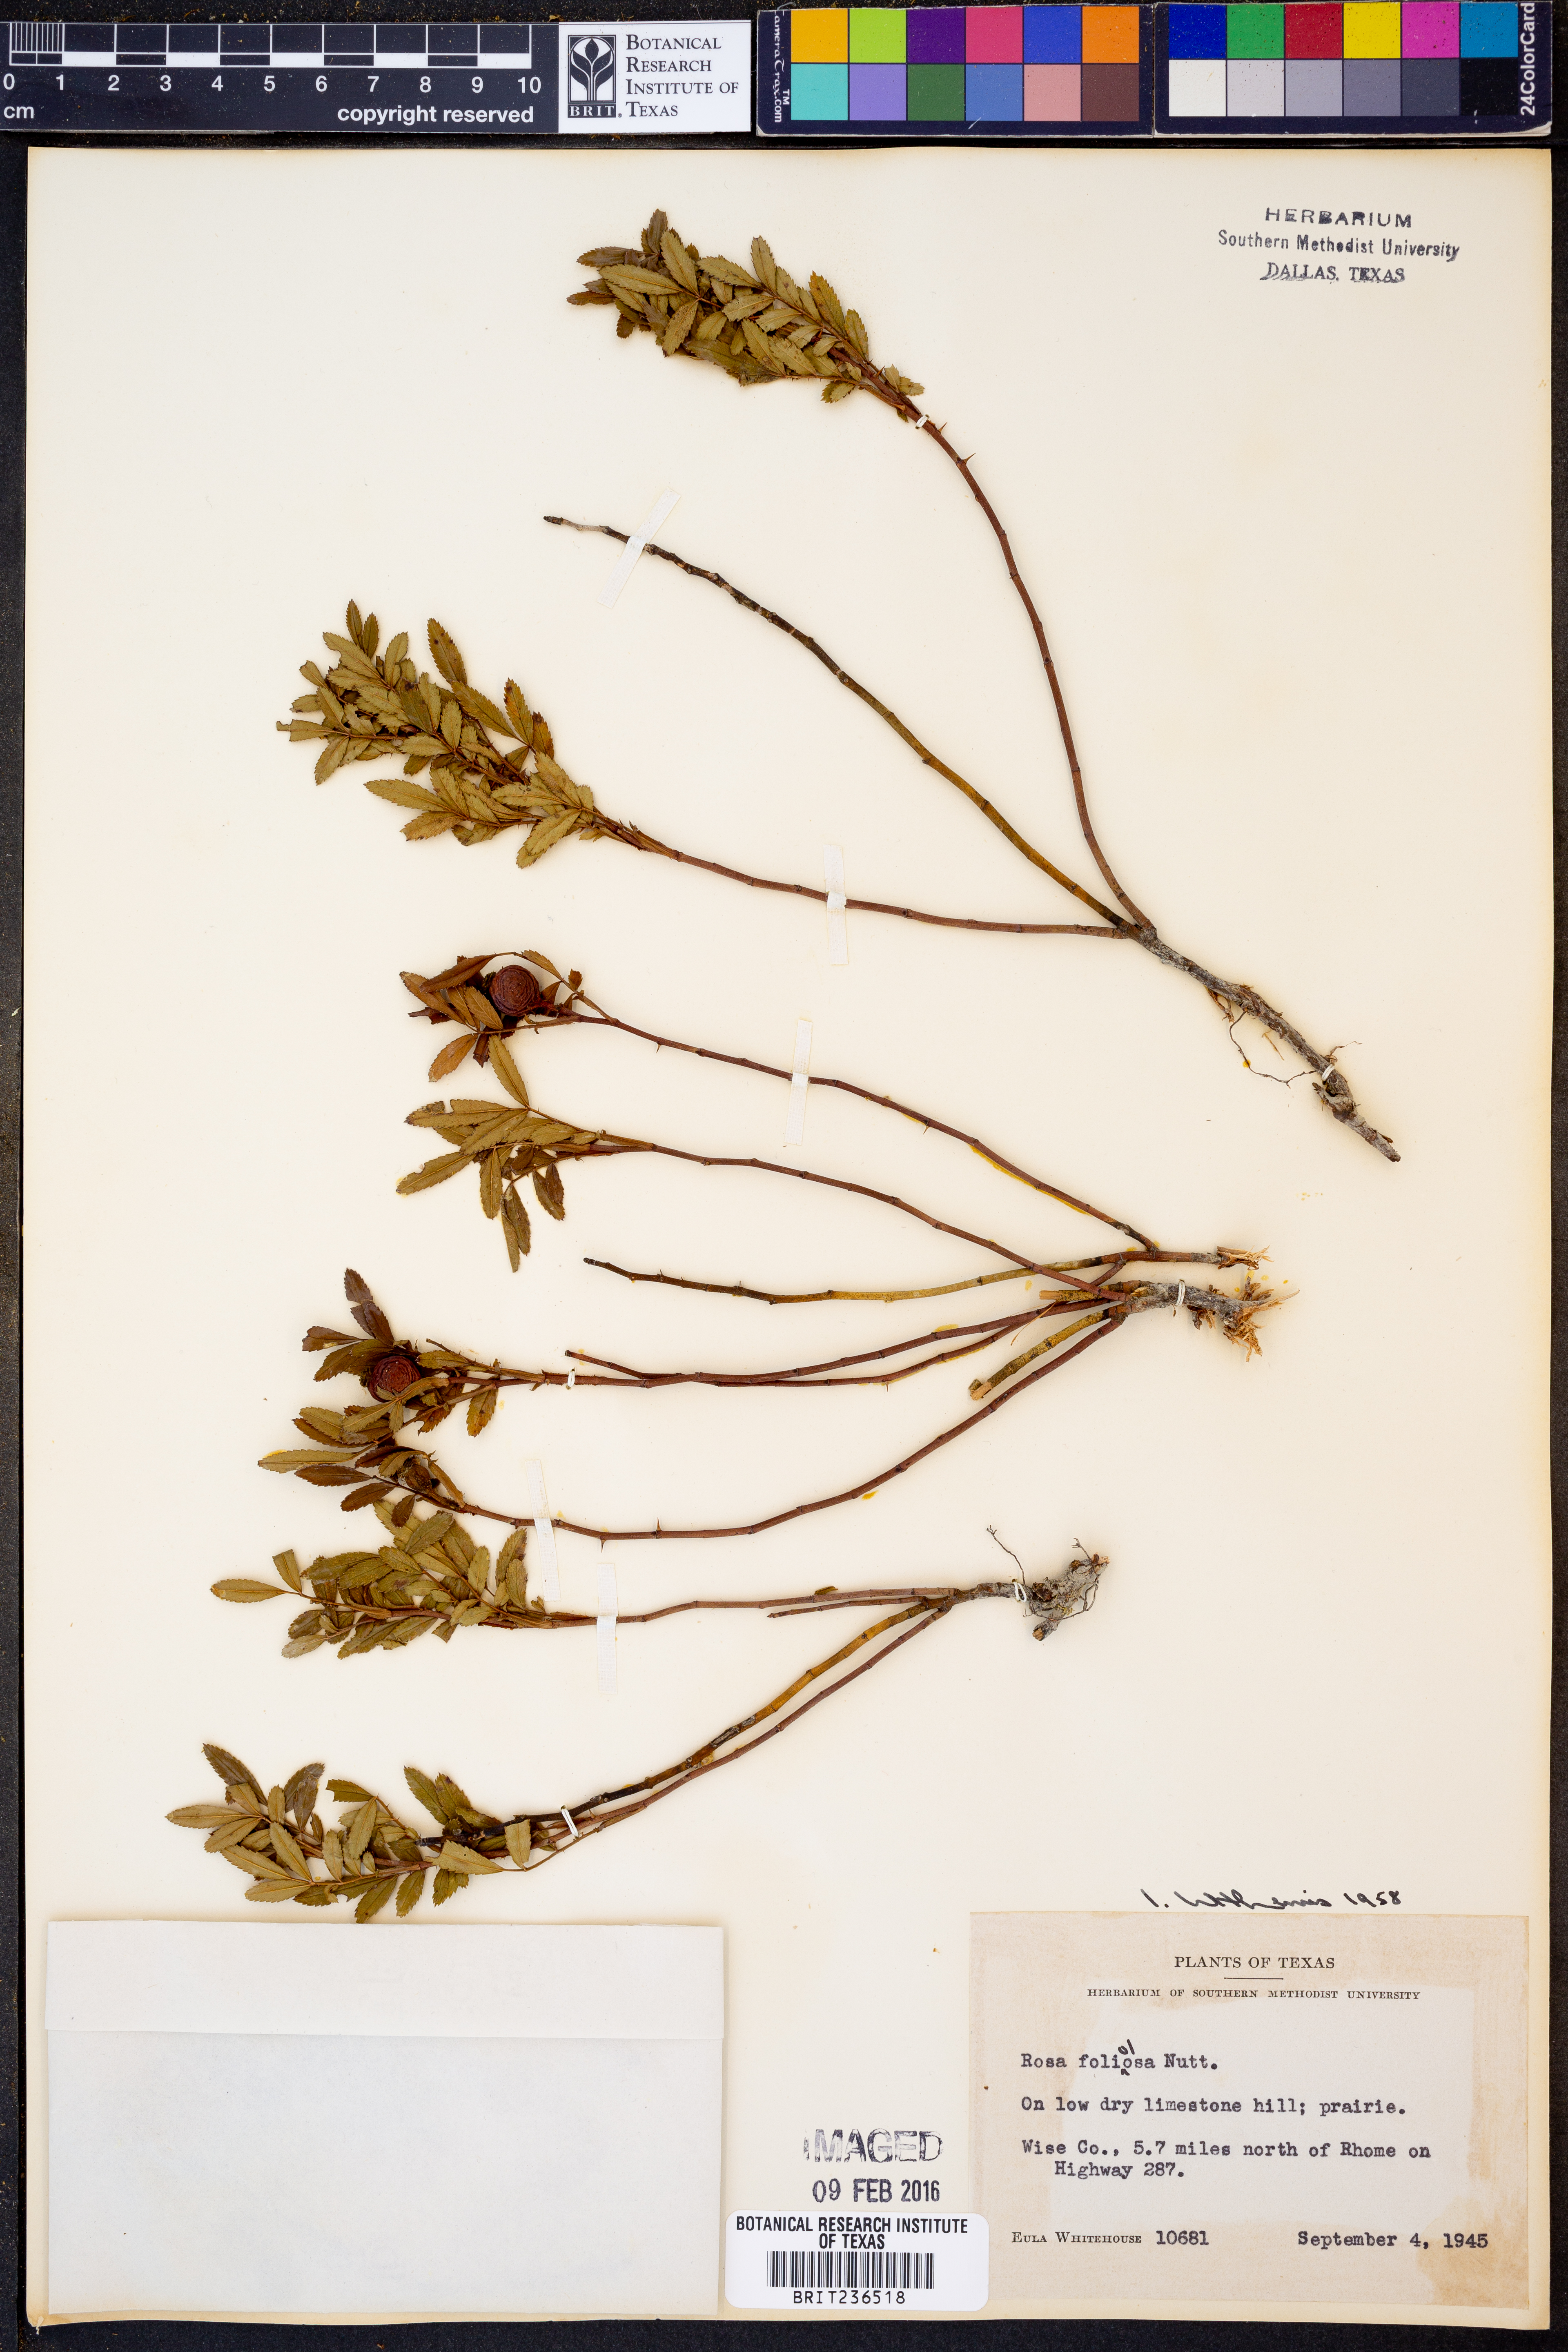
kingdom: Plantae
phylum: Tracheophyta
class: Magnoliopsida
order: Rosales
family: Rosaceae
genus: Rosa
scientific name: Rosa memoryae
